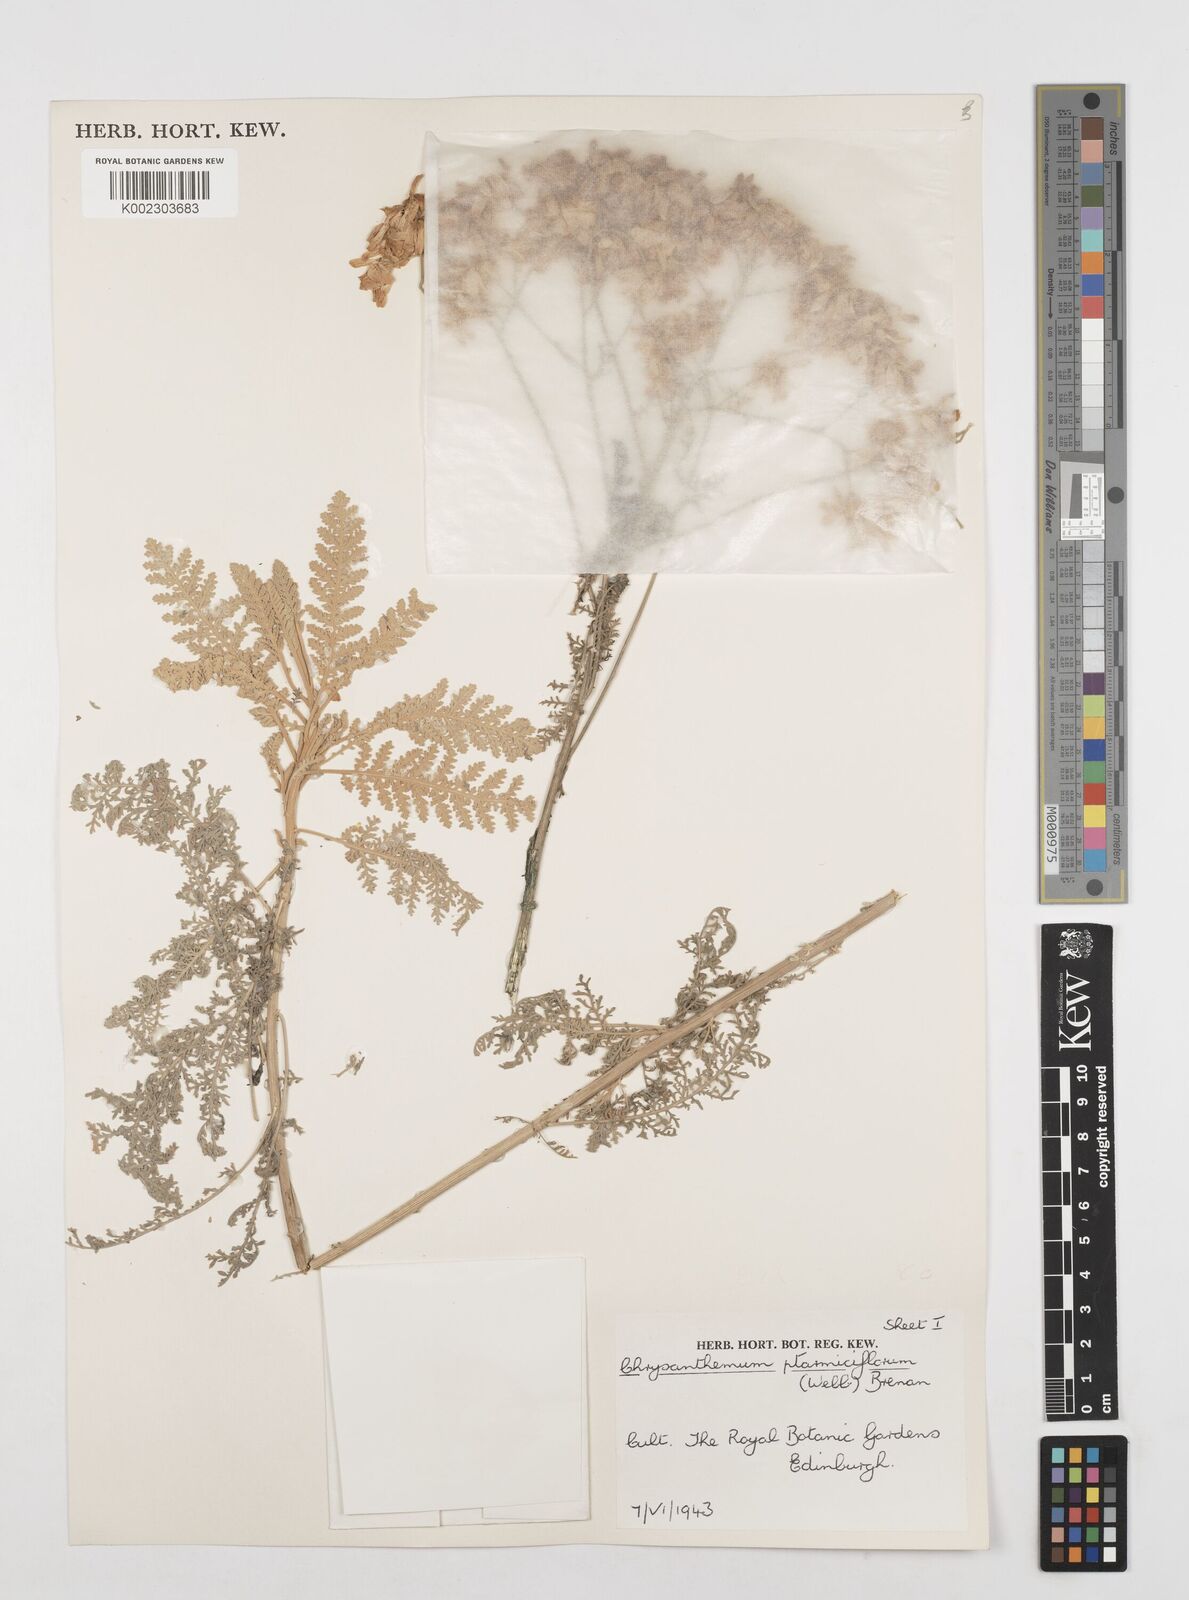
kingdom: Plantae
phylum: Tracheophyta
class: Magnoliopsida
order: Asterales
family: Asteraceae
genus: Gonospermum
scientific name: Gonospermum ptarmiciflorum
